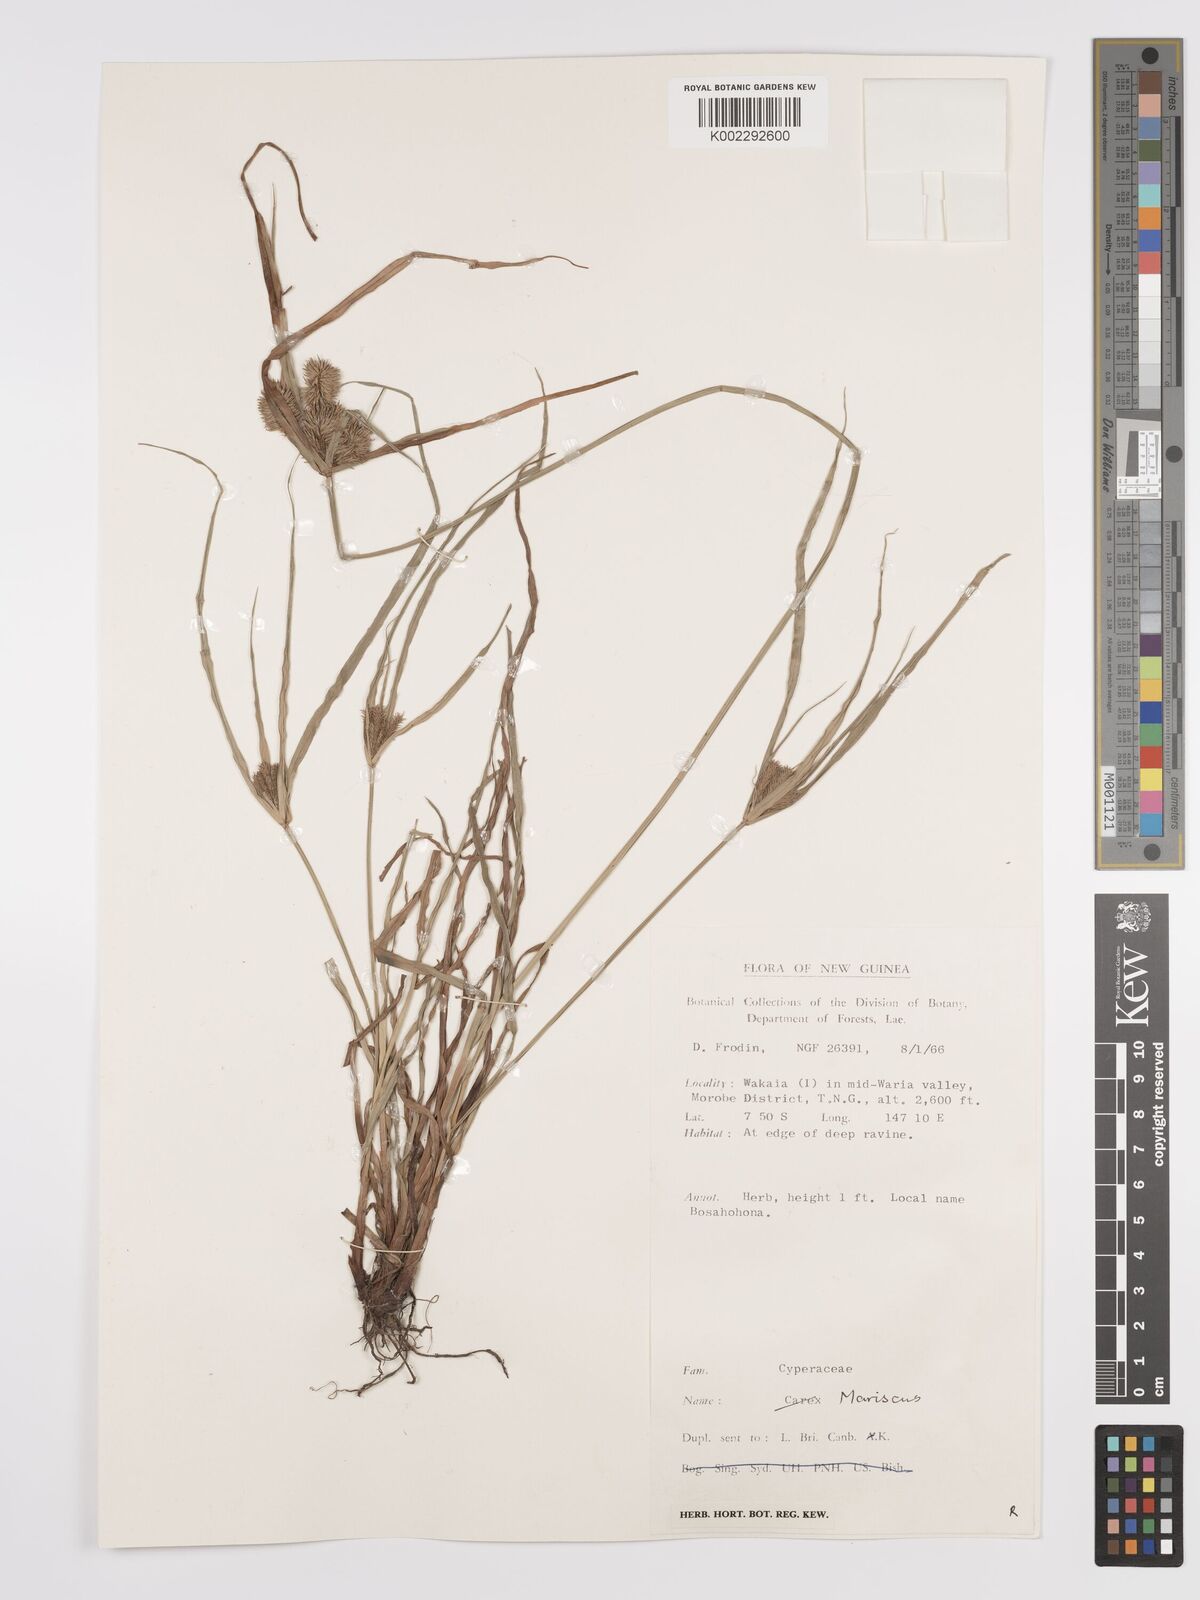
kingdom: Plantae
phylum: Tracheophyta
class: Liliopsida
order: Poales
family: Cyperaceae
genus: Cyperus
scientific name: Cyperus cyperinus
